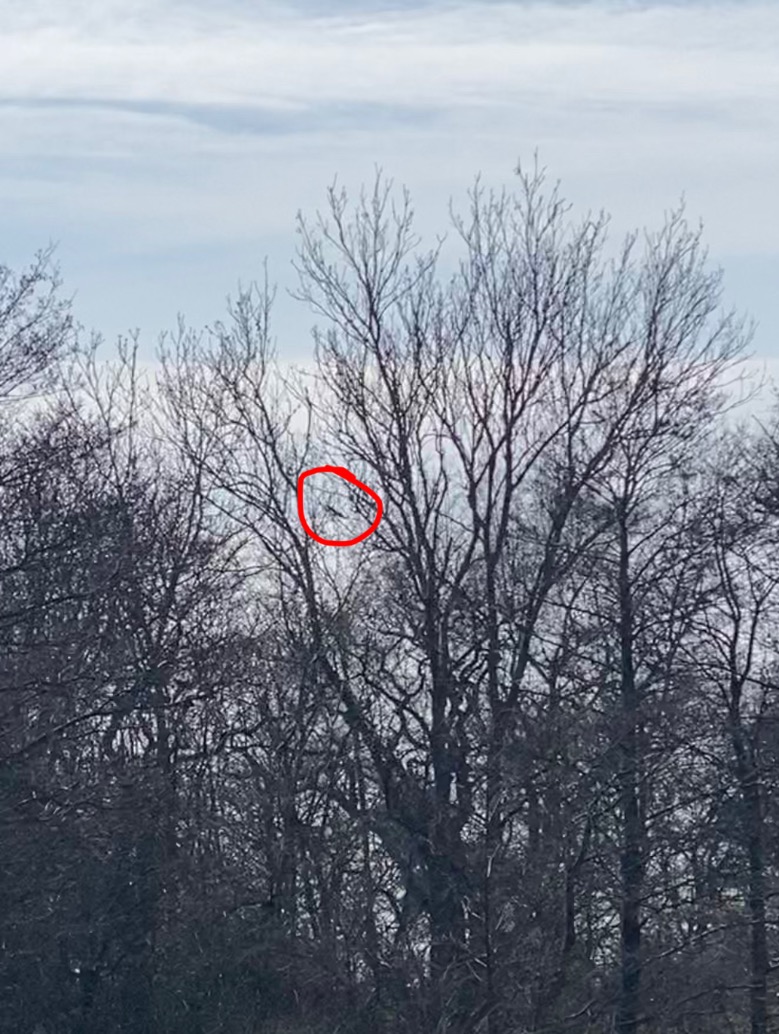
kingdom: Animalia
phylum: Chordata
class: Aves
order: Accipitriformes
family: Accipitridae
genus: Haliaeetus
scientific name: Haliaeetus albicilla
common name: Havørn
